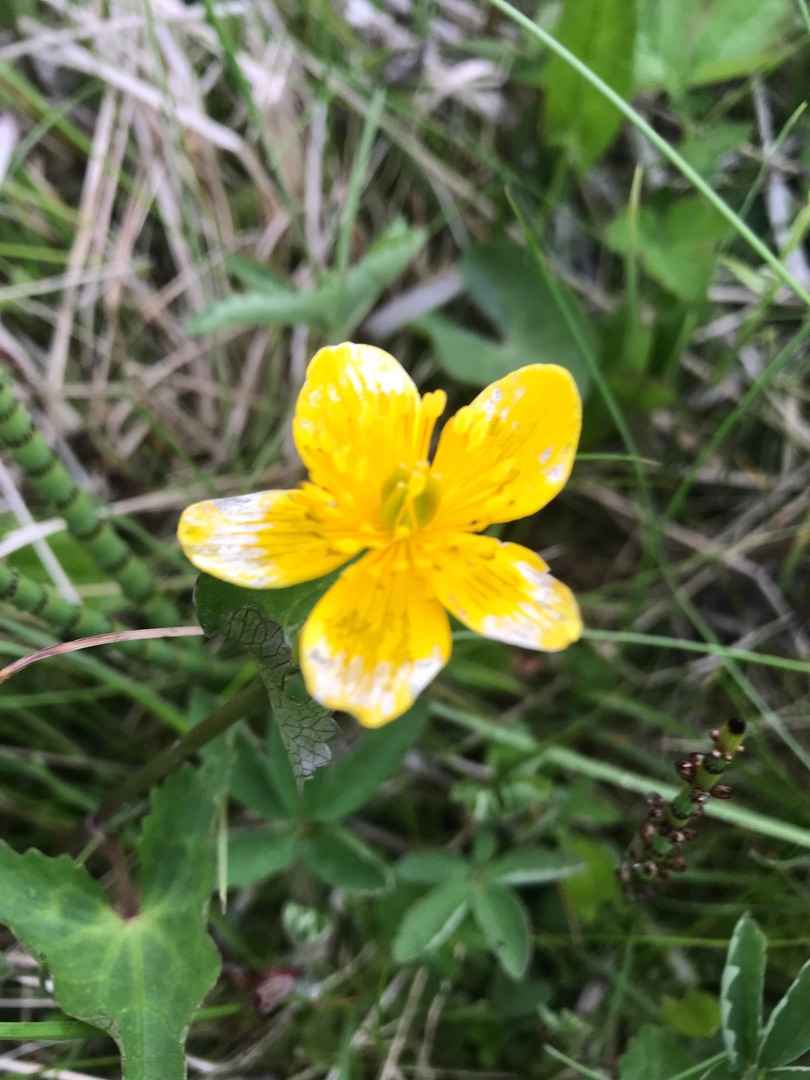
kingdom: Plantae
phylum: Tracheophyta
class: Magnoliopsida
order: Ranunculales
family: Ranunculaceae
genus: Caltha
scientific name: Caltha palustris
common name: Eng-kabbeleje
